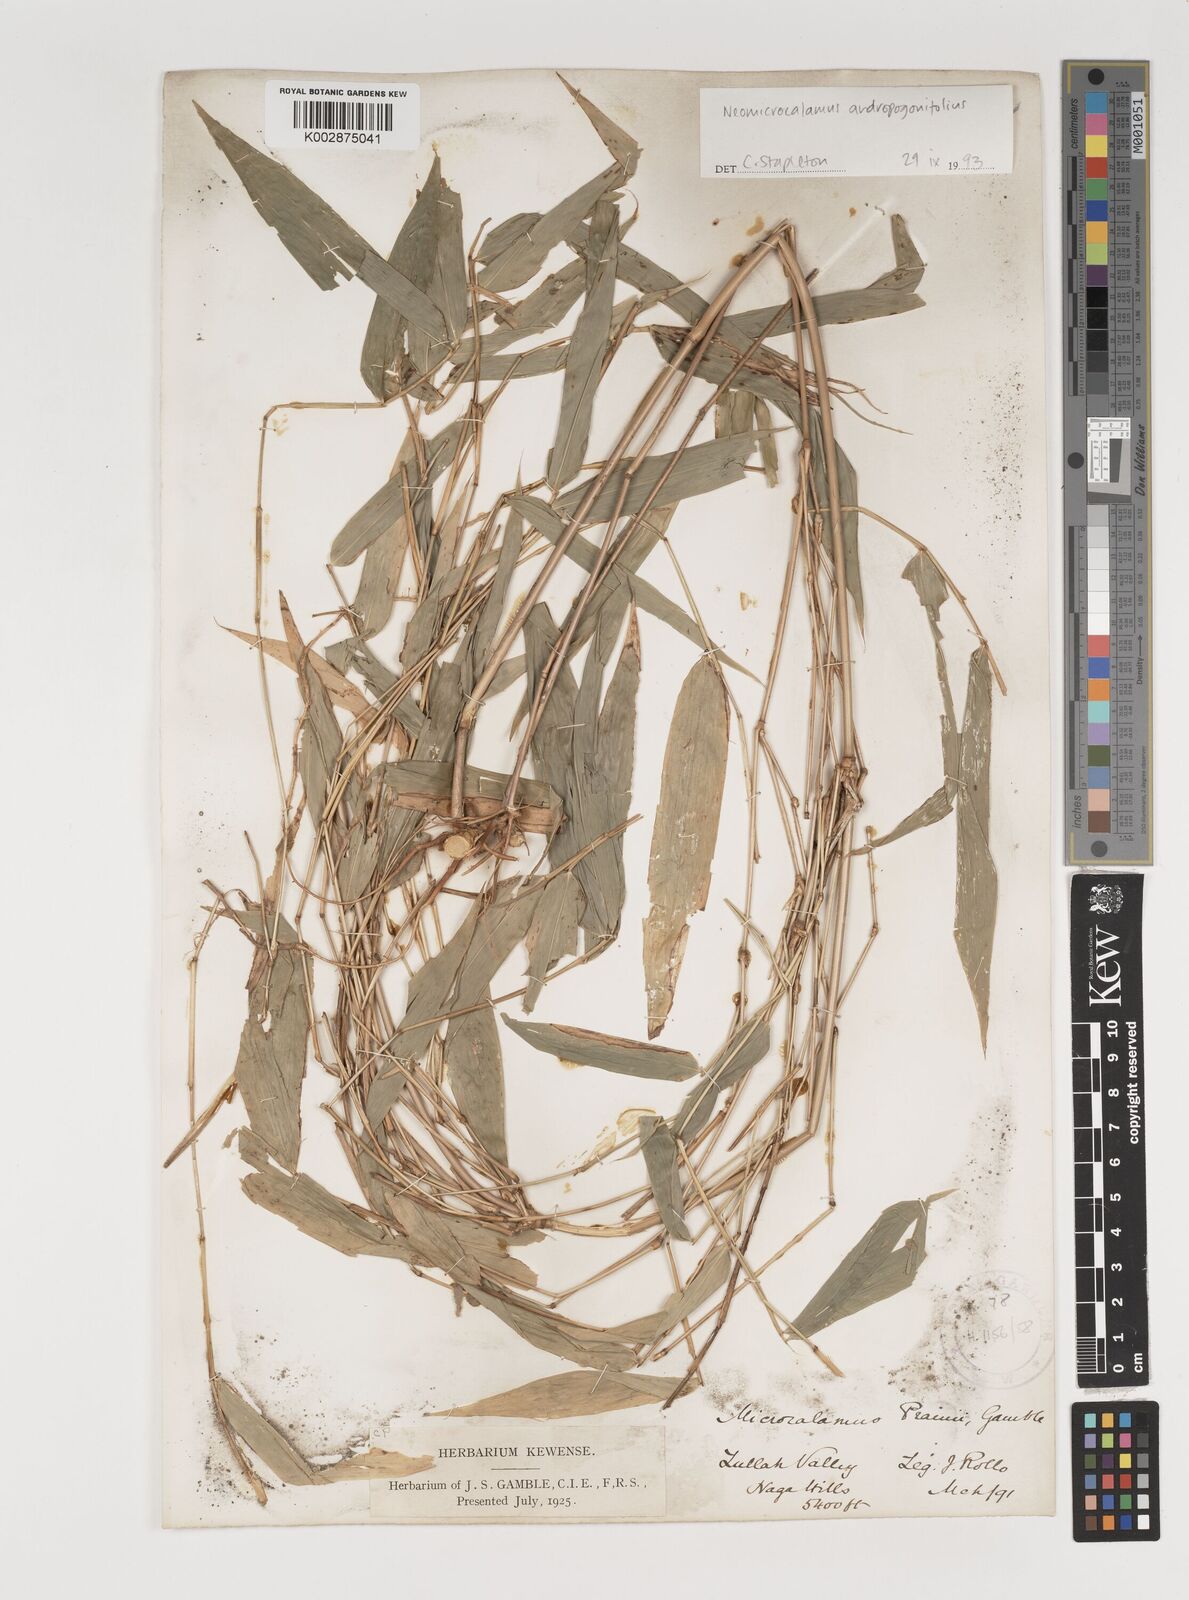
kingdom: Plantae
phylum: Tracheophyta
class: Liliopsida
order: Poales
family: Poaceae
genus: Neomicrocalamus
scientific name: Neomicrocalamus andropogonifolius
